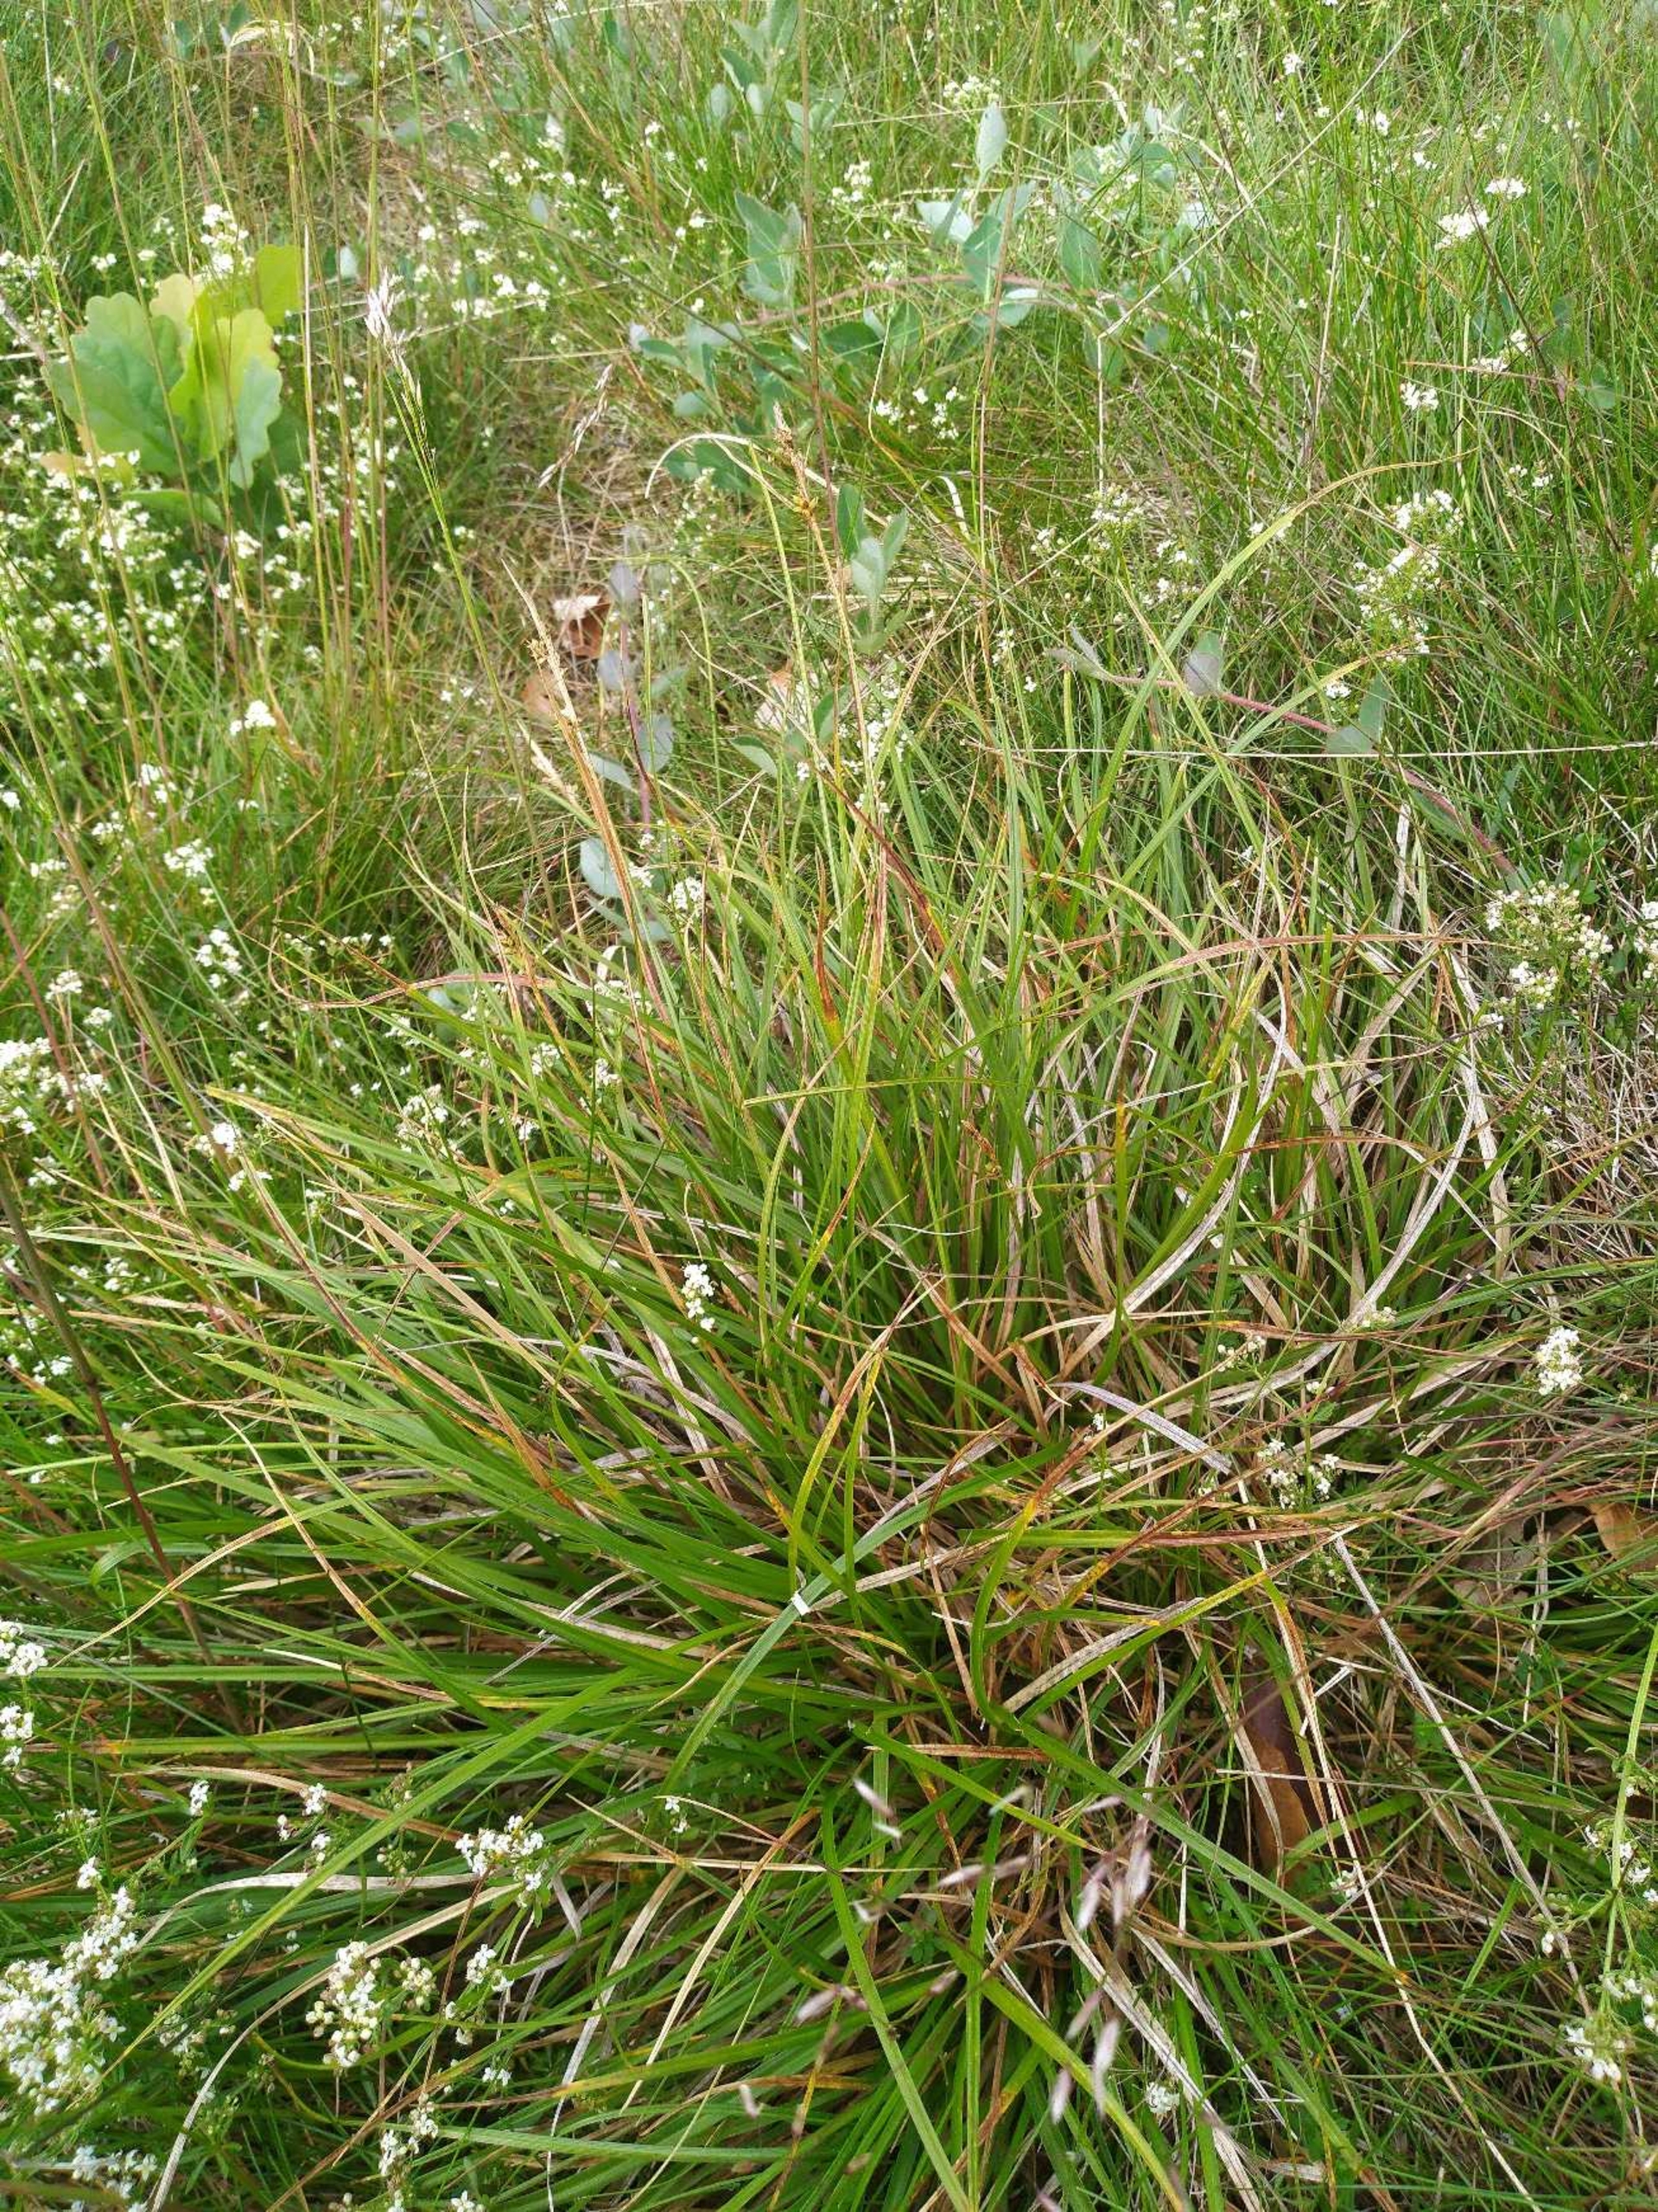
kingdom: Plantae
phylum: Tracheophyta
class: Liliopsida
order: Poales
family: Cyperaceae
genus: Carex
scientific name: Carex pilulifera
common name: Pille-star
